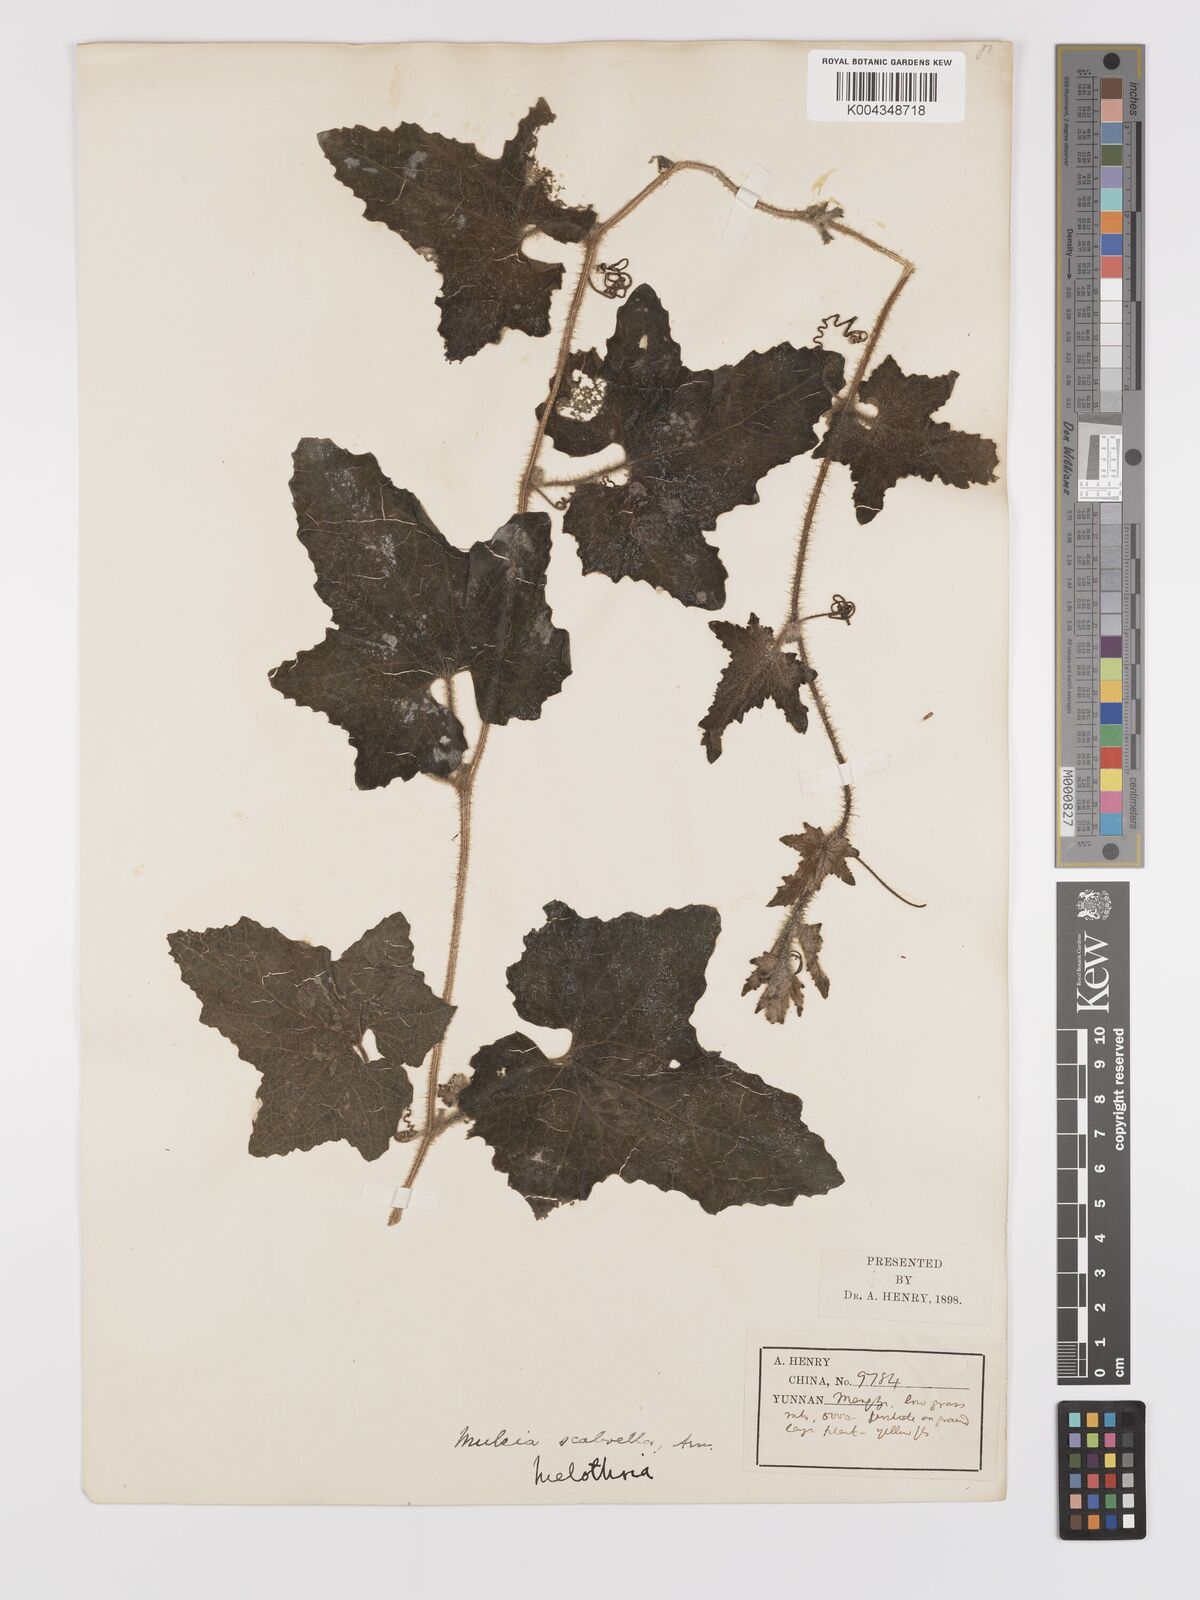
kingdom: Plantae
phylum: Tracheophyta
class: Magnoliopsida
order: Cucurbitales
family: Cucurbitaceae
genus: Cucumis
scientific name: Cucumis maderaspatanus
